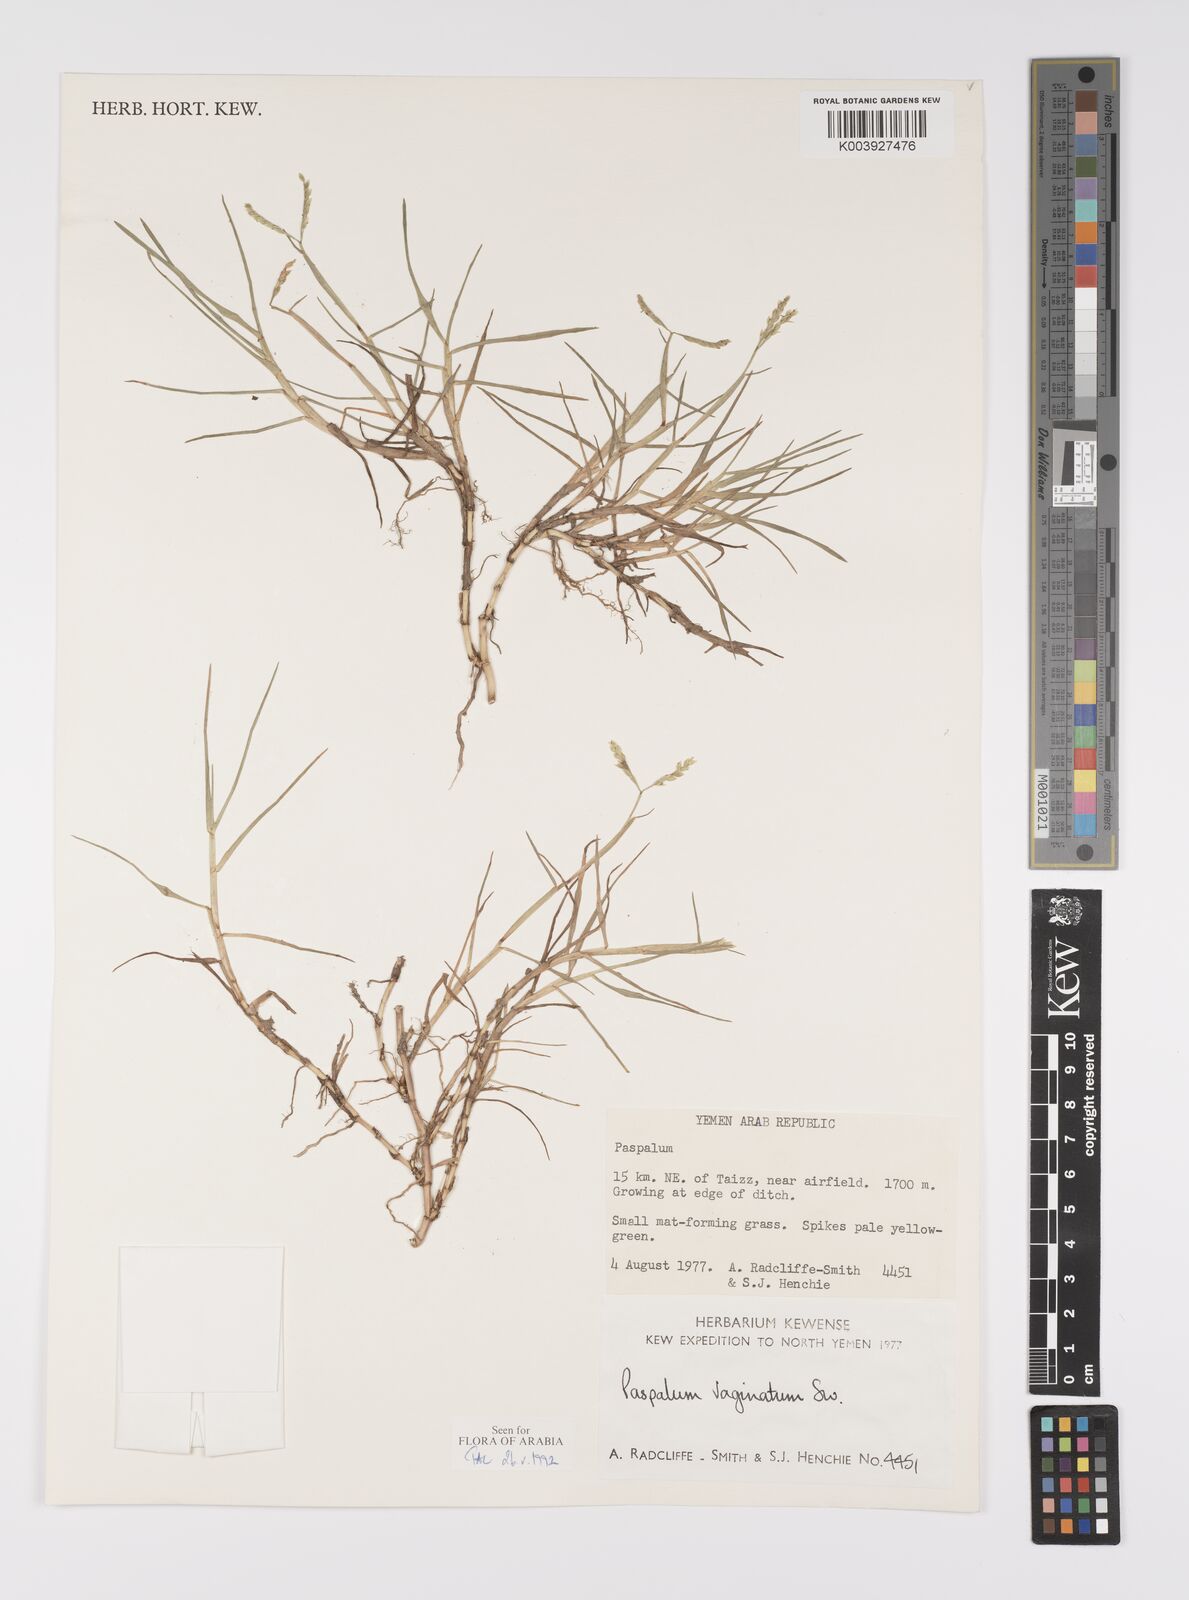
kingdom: Plantae
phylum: Tracheophyta
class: Liliopsida
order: Poales
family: Poaceae
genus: Paspalum
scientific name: Paspalum vaginatum
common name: Seashore paspalum
